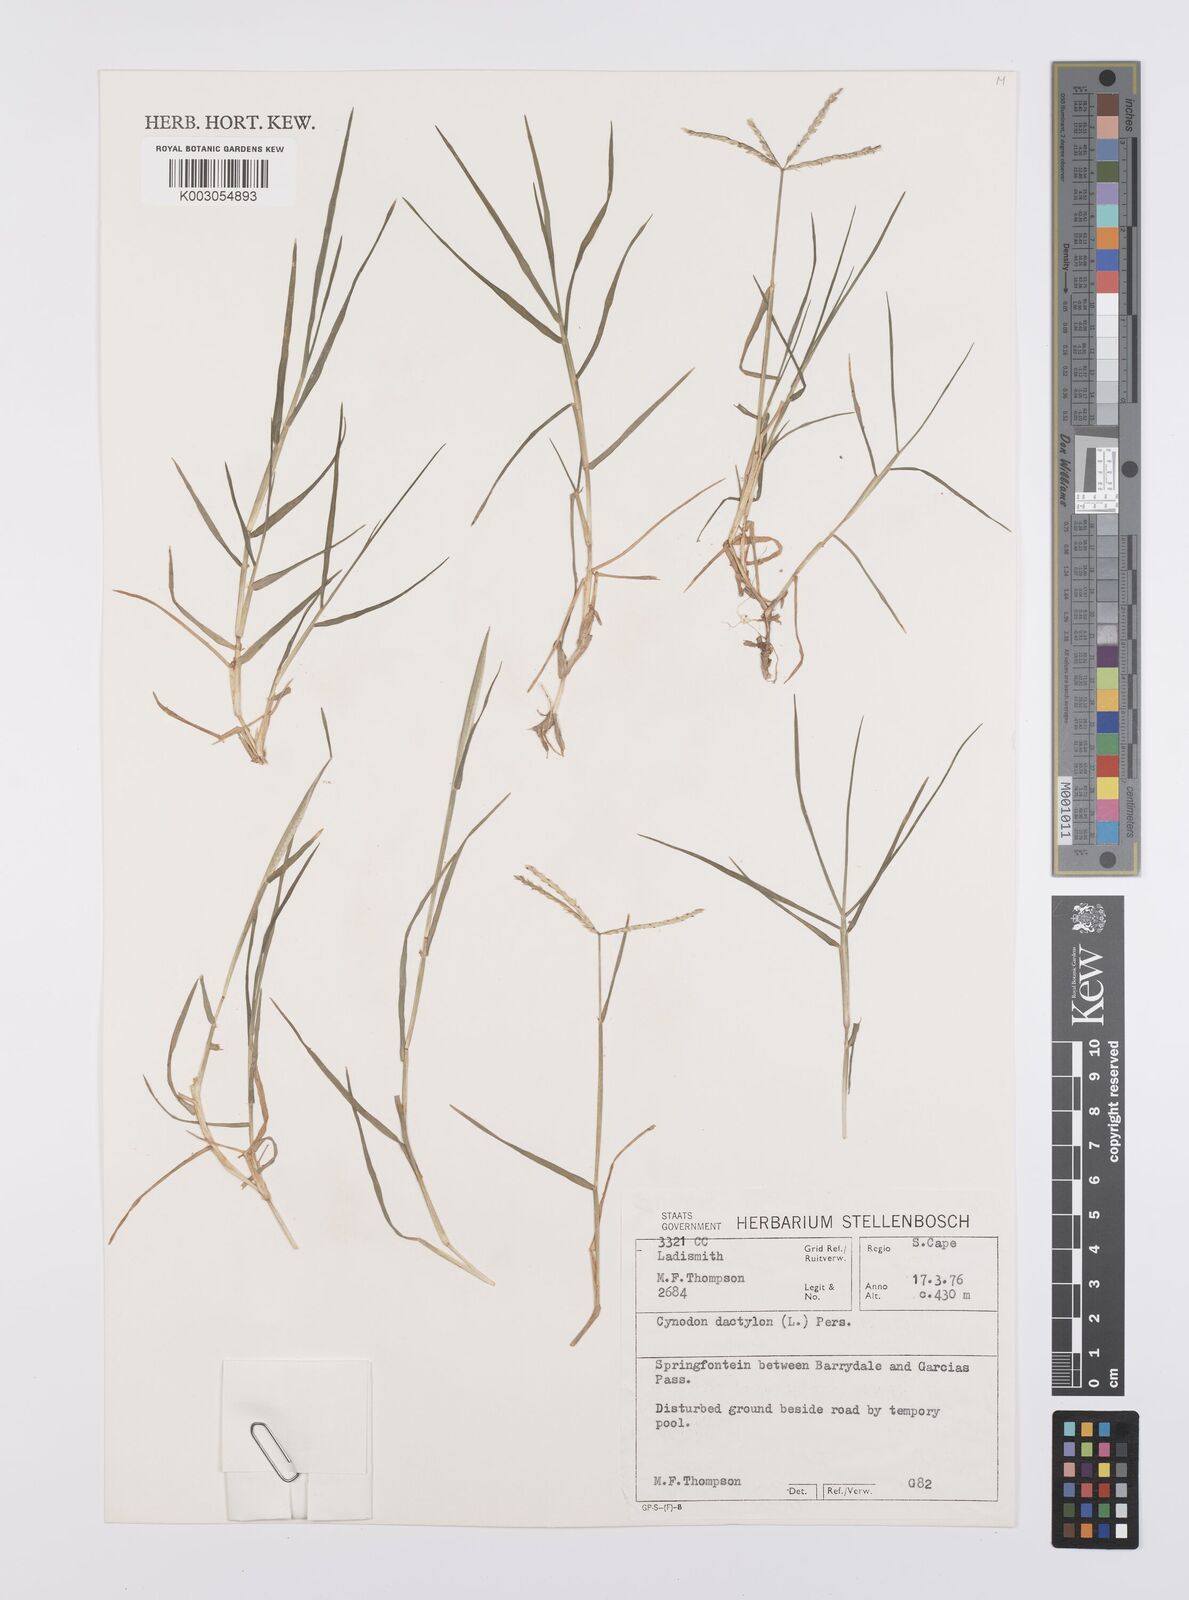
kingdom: Plantae
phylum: Tracheophyta
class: Liliopsida
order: Poales
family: Poaceae
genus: Cynodon
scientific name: Cynodon dactylon
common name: Bermuda grass
